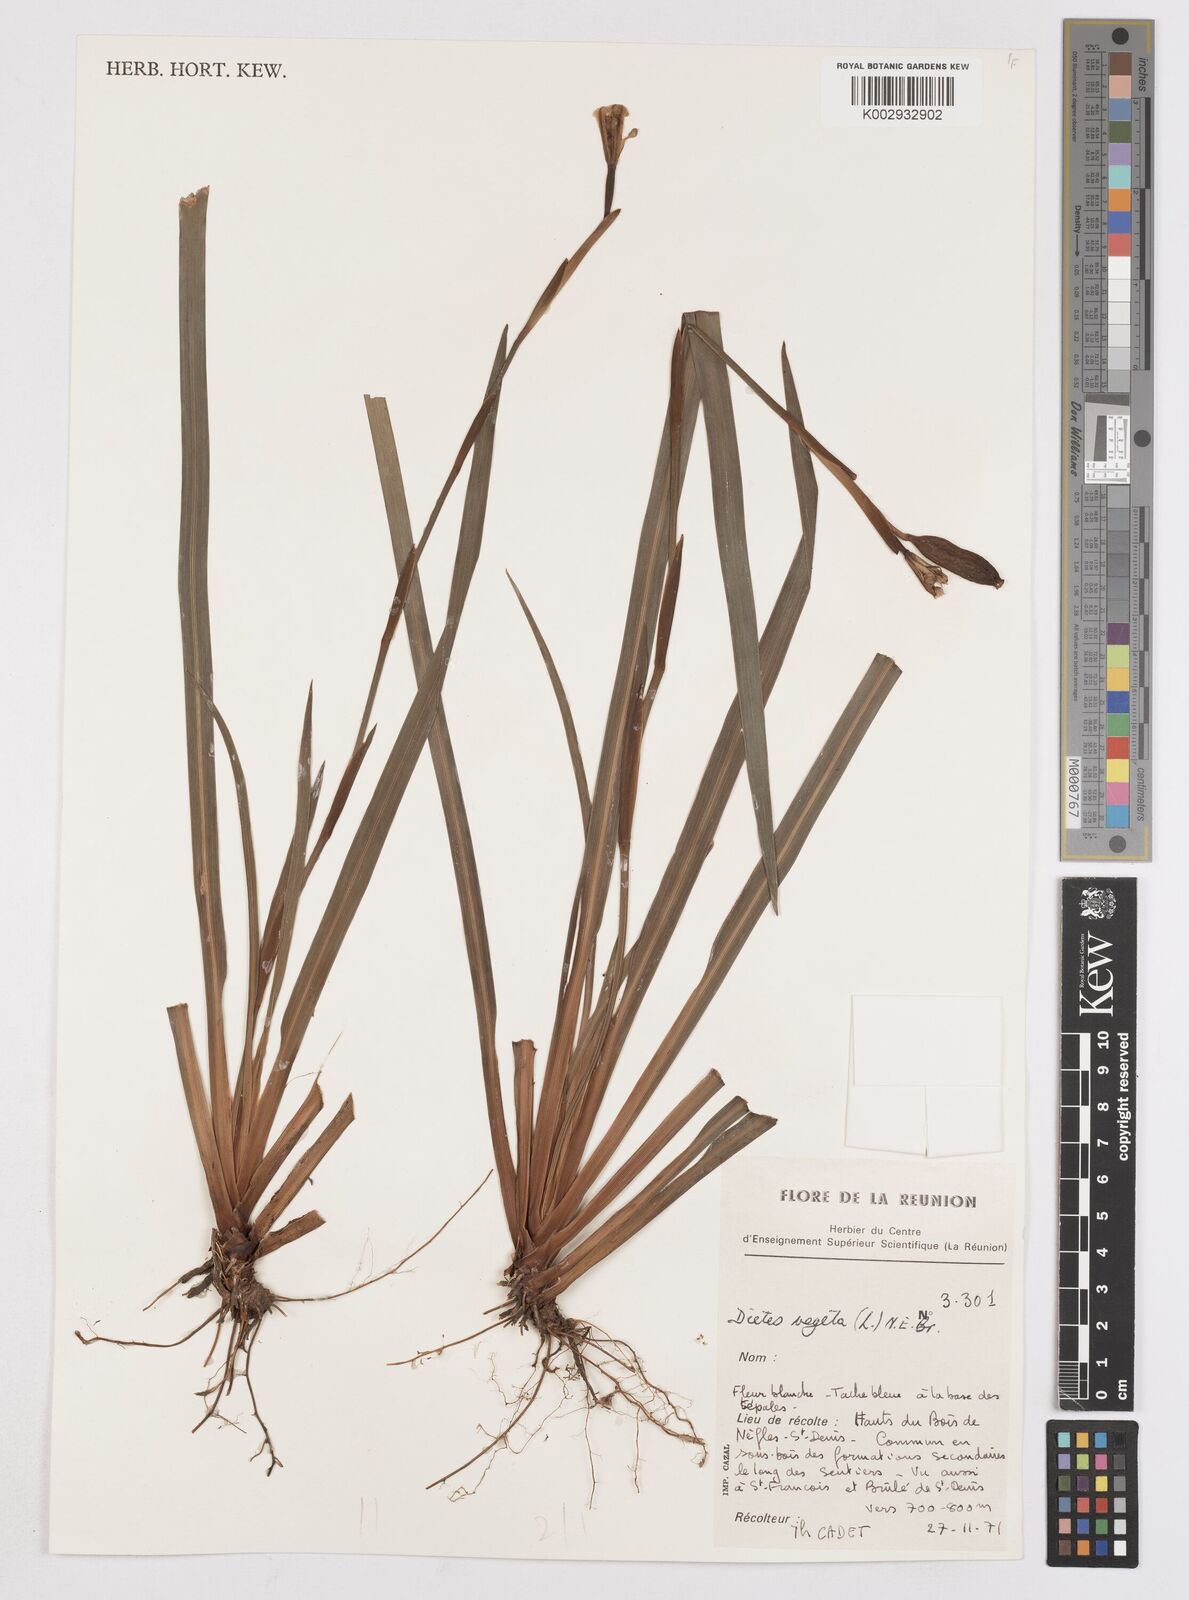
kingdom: Plantae
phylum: Tracheophyta
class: Liliopsida
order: Asparagales
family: Iridaceae
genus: Dietes
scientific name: Dietes iridioides
